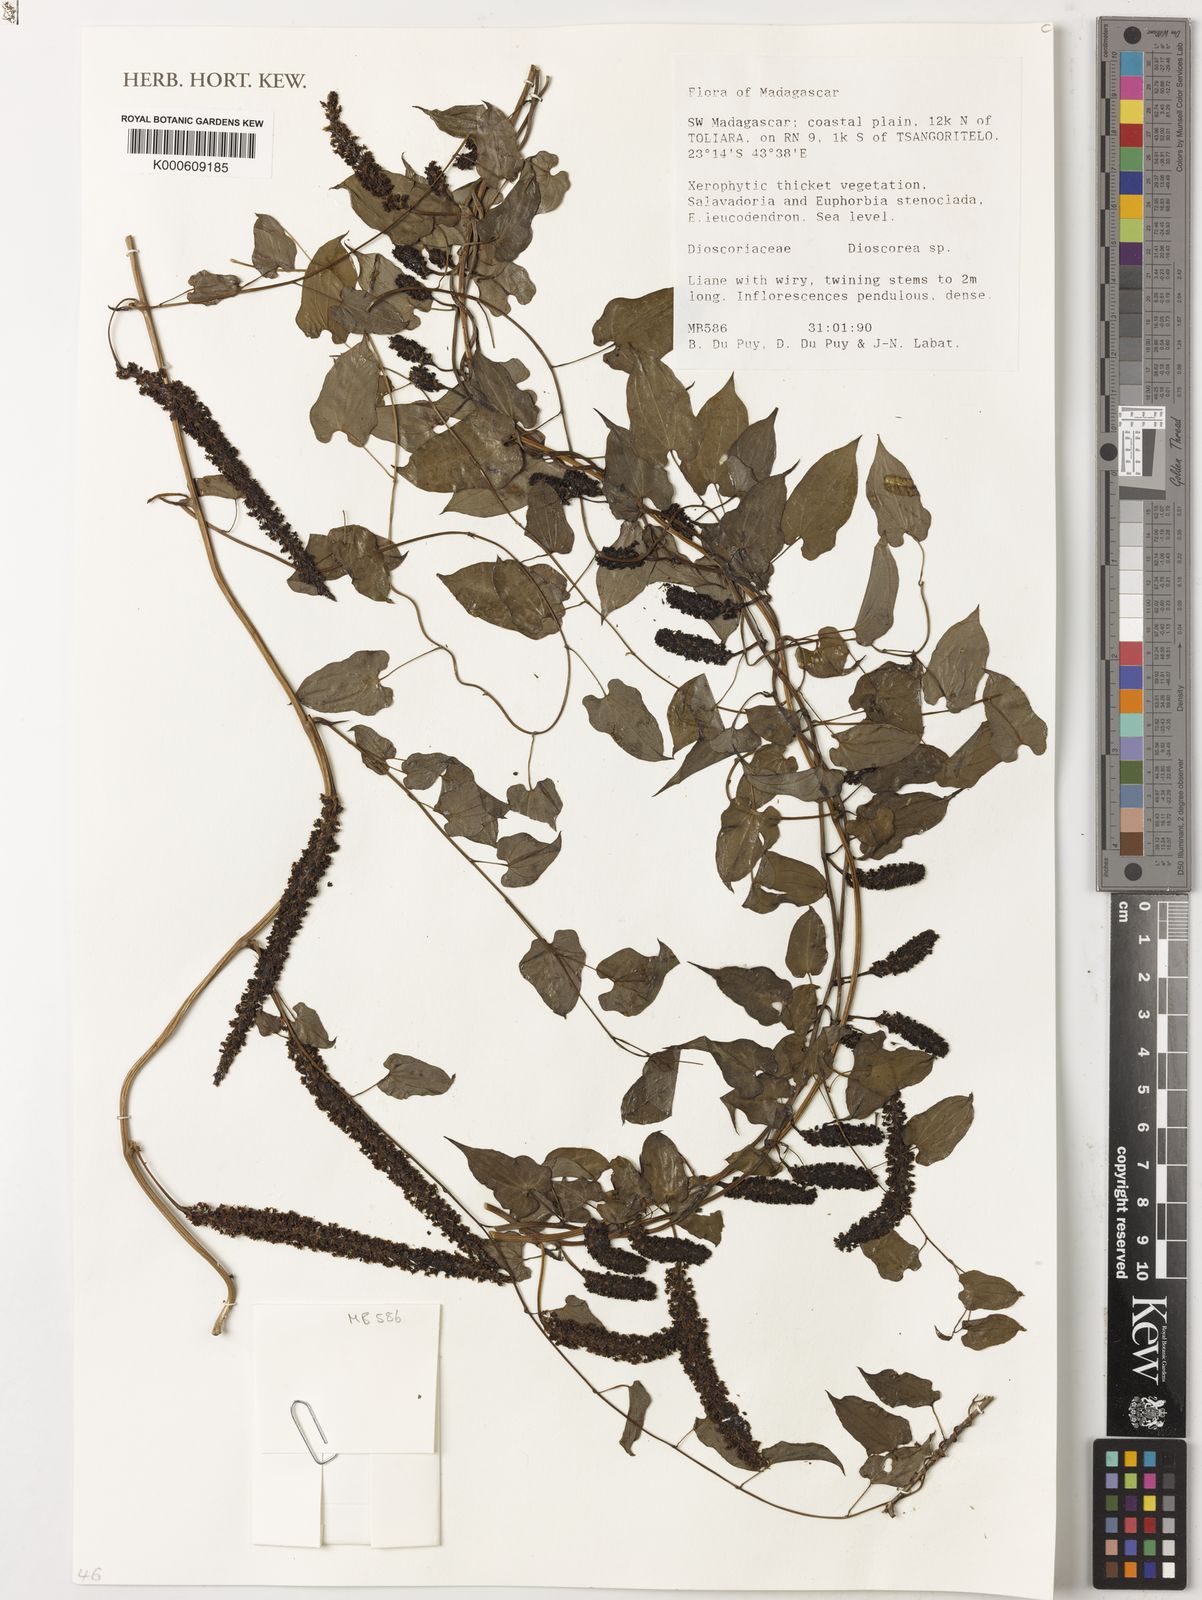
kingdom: Plantae
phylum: Tracheophyta
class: Liliopsida
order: Dioscoreales
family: Dioscoreaceae
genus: Dioscorea
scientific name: Dioscorea
